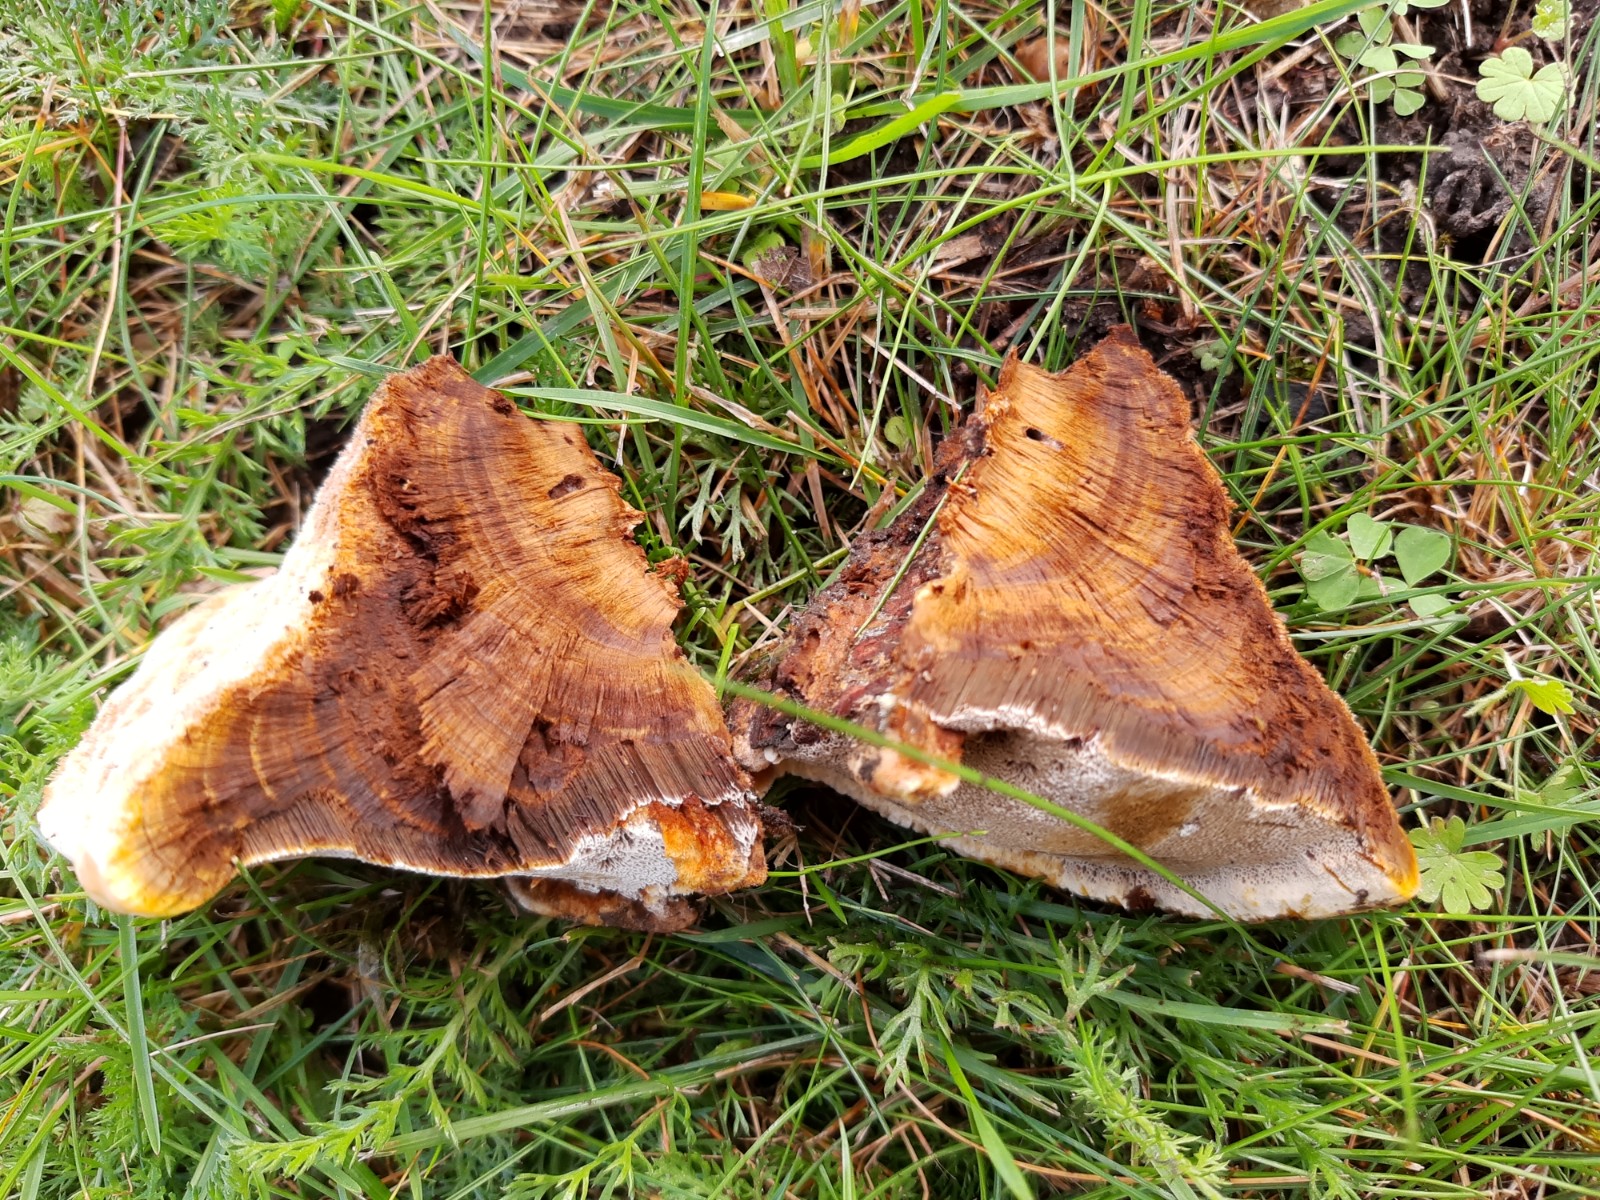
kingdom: Fungi
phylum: Basidiomycota
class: Agaricomycetes
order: Hymenochaetales
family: Hymenochaetaceae
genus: Inonotus
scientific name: Inonotus cuticularis
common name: kroghåret spejlporesvamp
